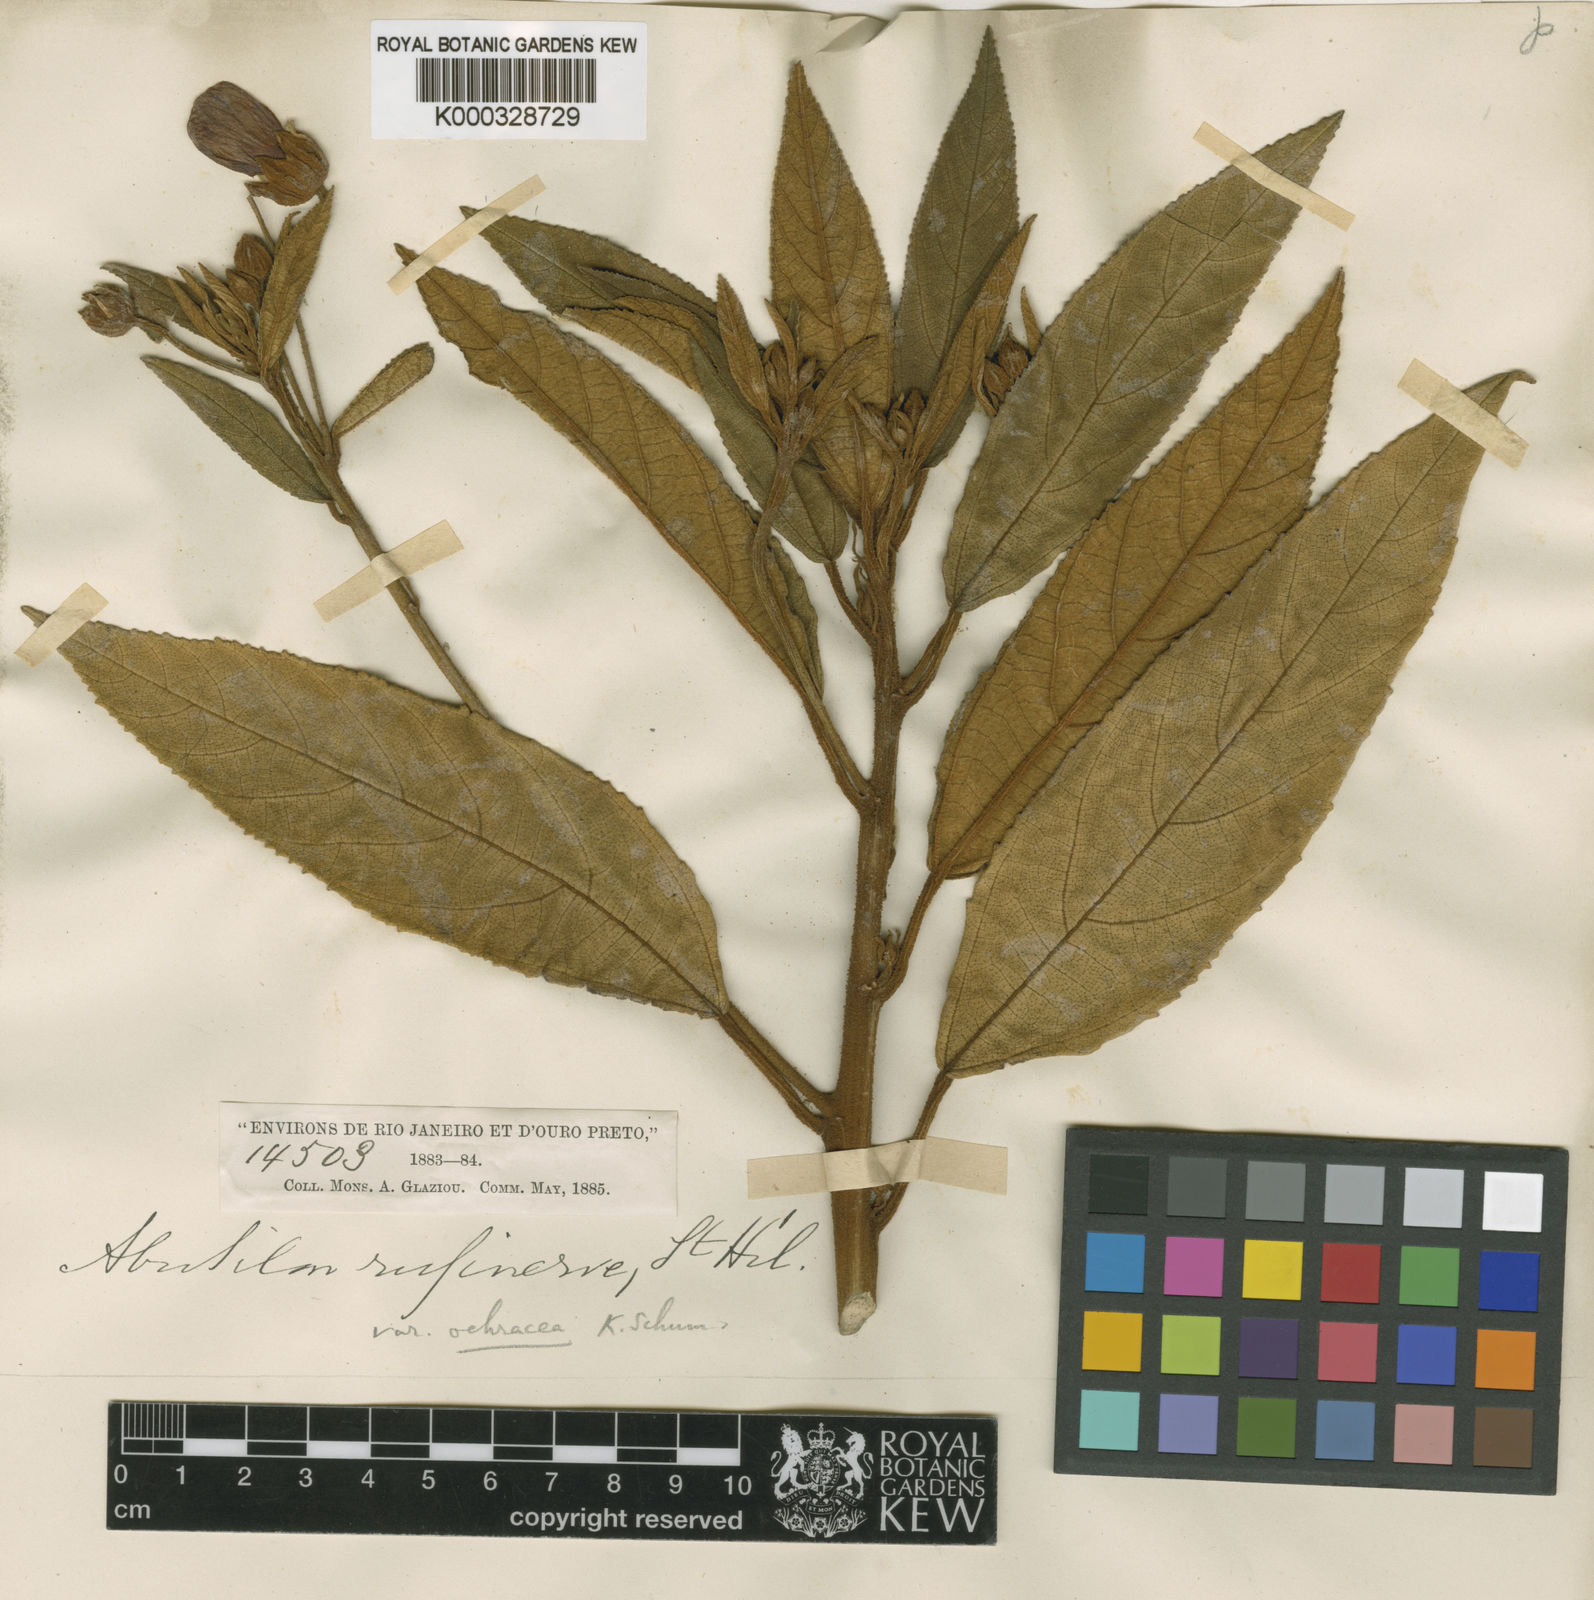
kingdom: Plantae
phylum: Tracheophyta
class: Magnoliopsida
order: Malvales
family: Malvaceae
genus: Callianthe
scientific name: Callianthe rufinerva
